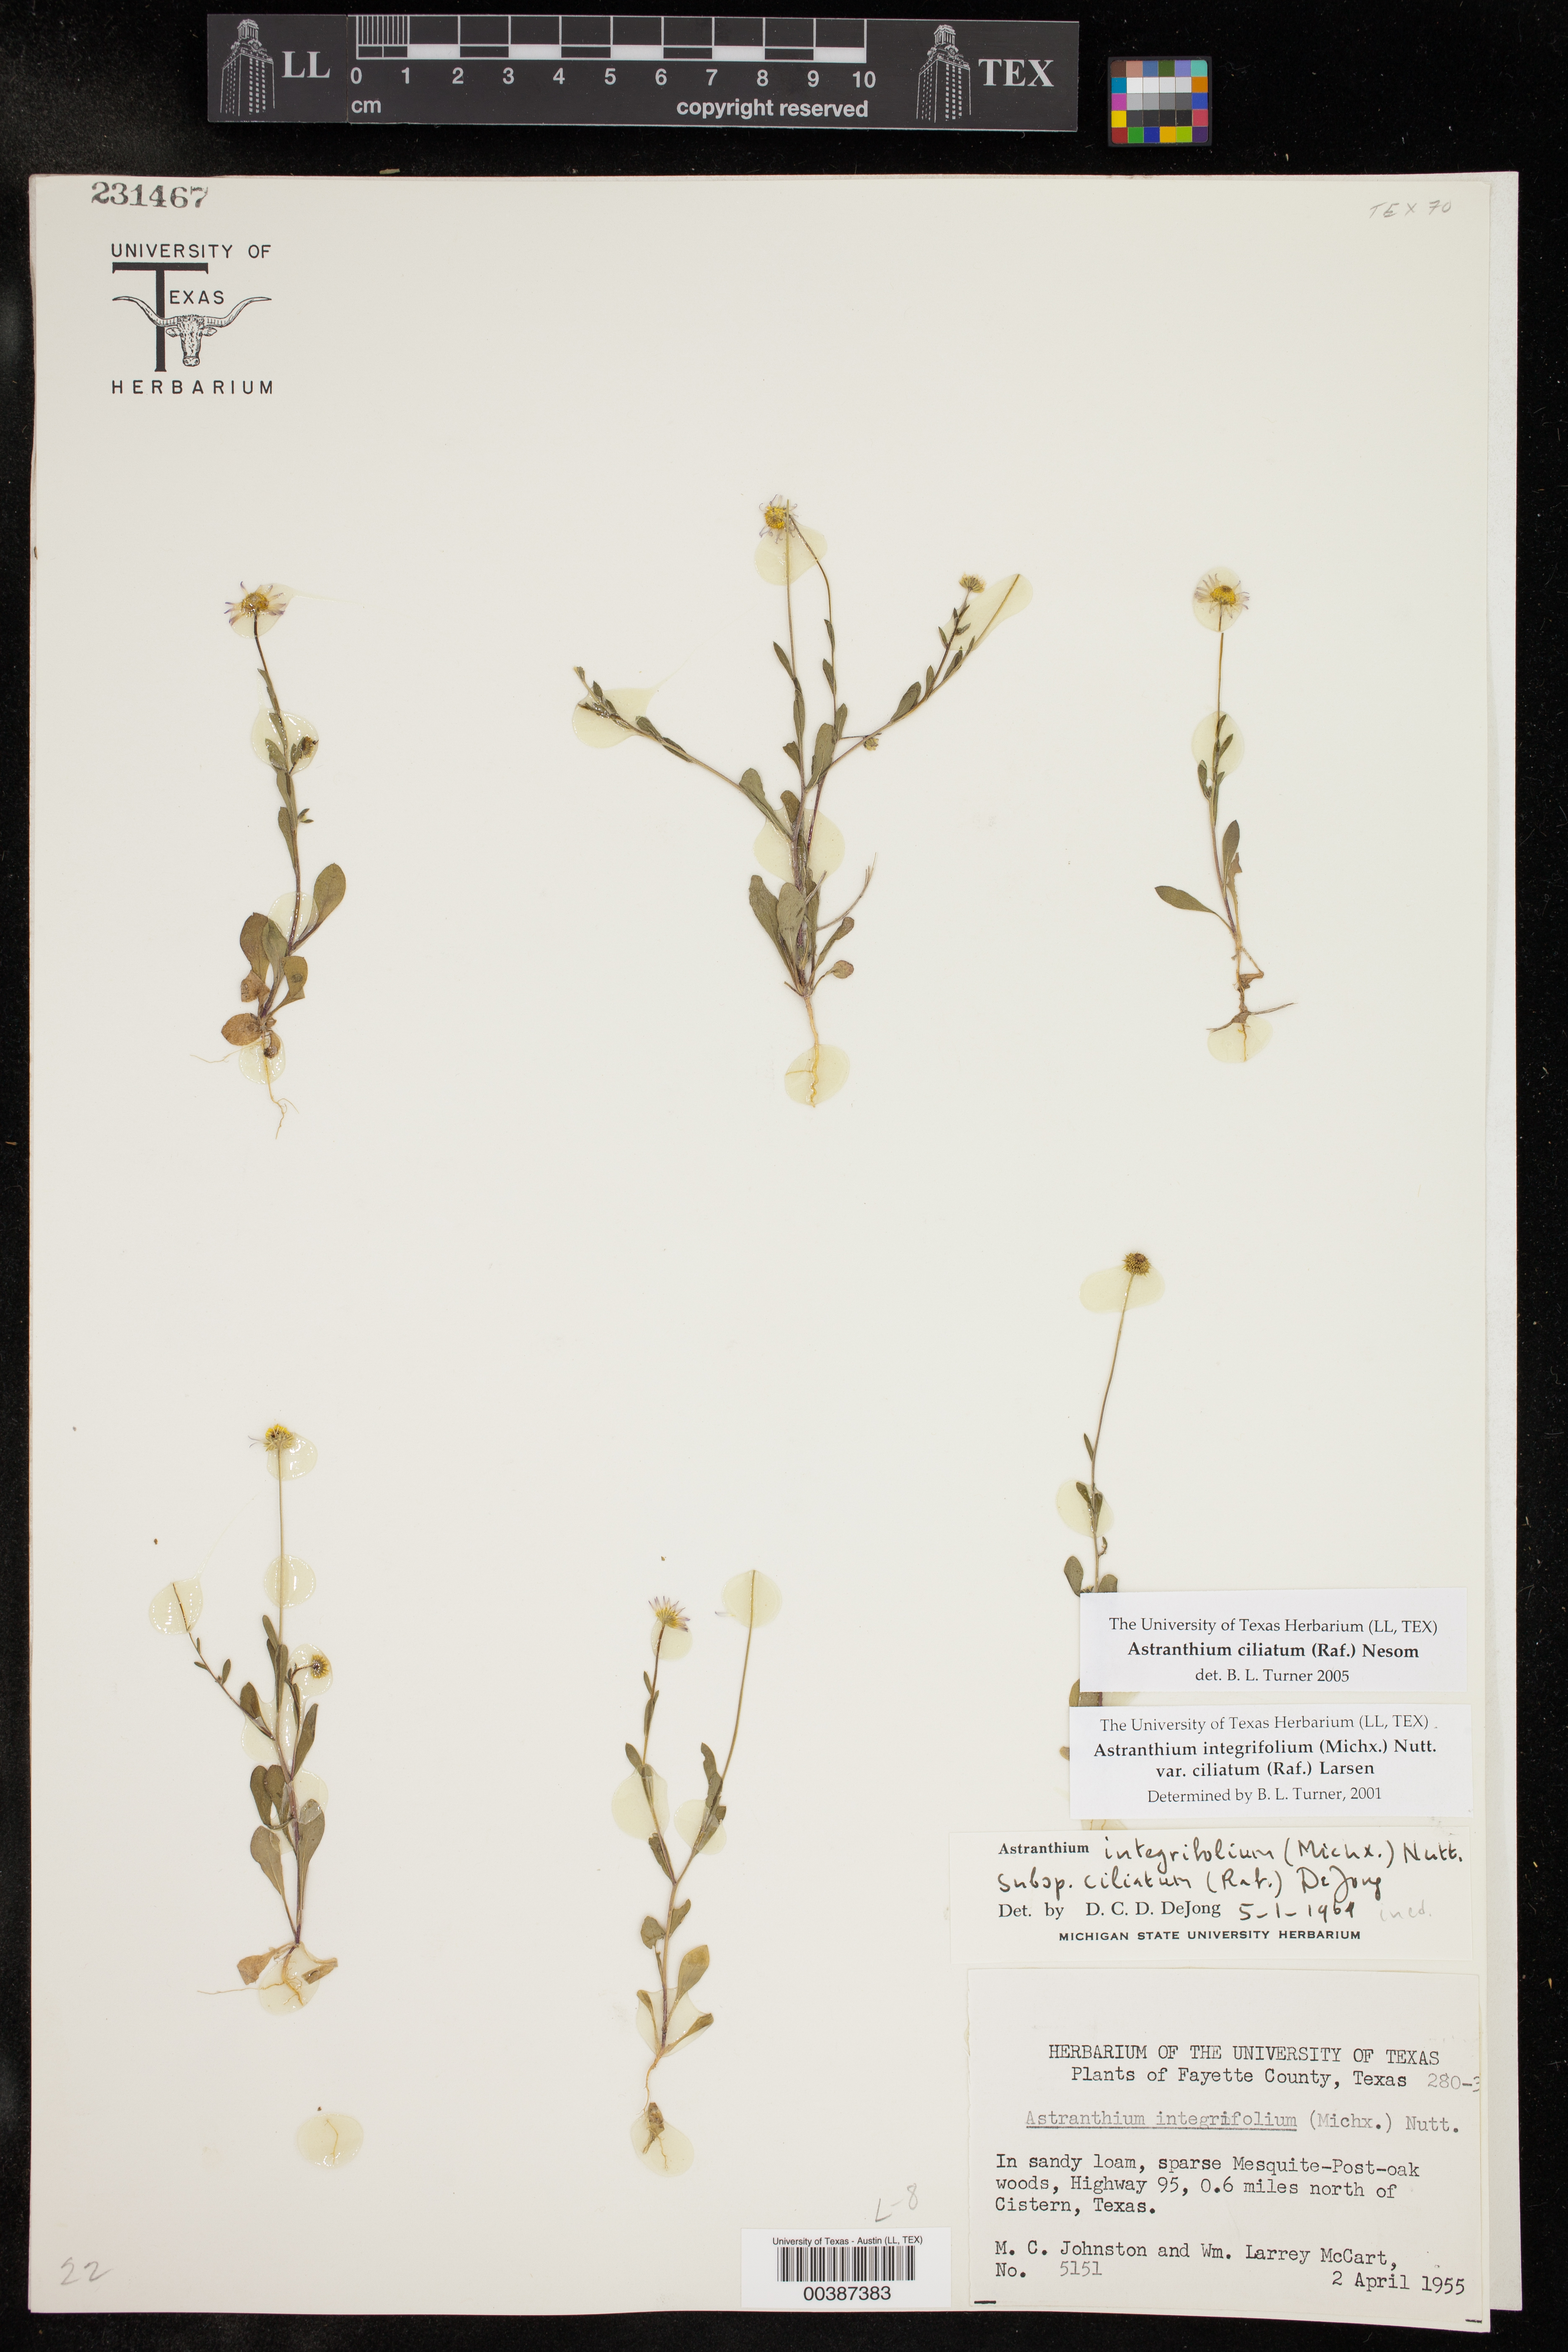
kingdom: Plantae
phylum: Tracheophyta
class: Magnoliopsida
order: Asterales
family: Asteraceae
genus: Astranthium
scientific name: Astranthium ciliatum
